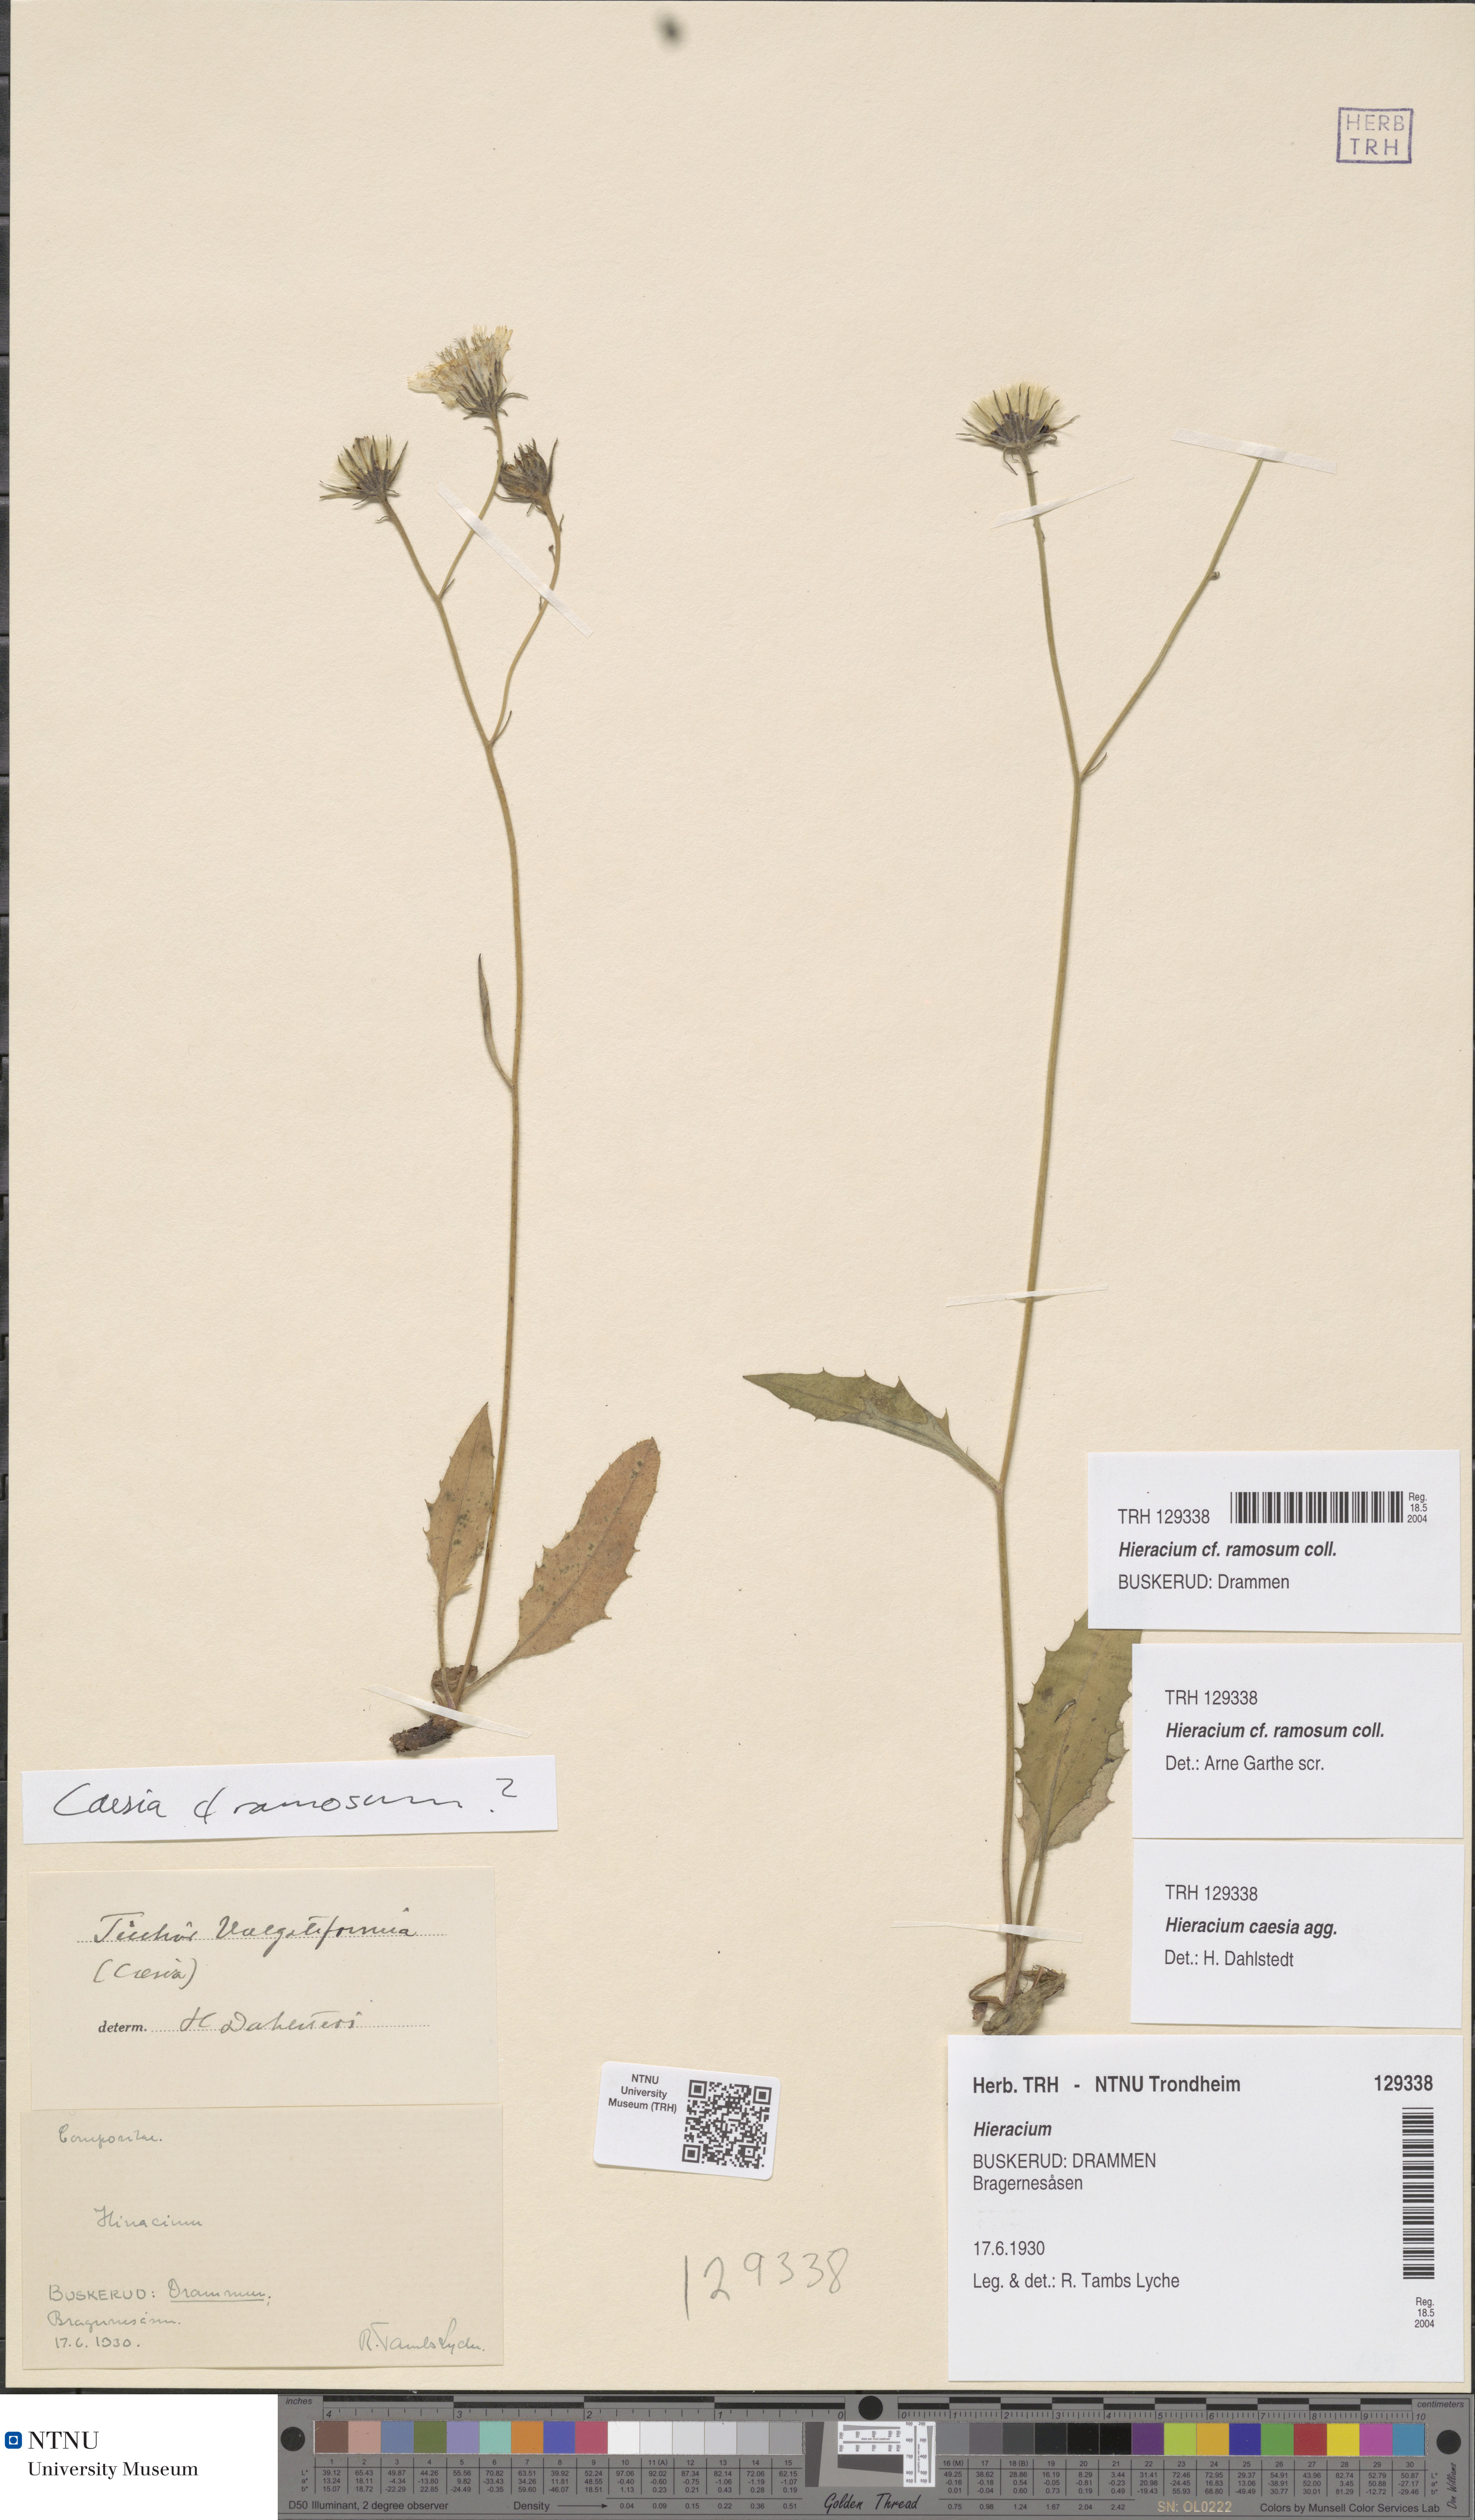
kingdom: Plantae
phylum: Tracheophyta
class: Magnoliopsida
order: Asterales
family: Asteraceae
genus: Hieracium
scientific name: Hieracium ramosum
